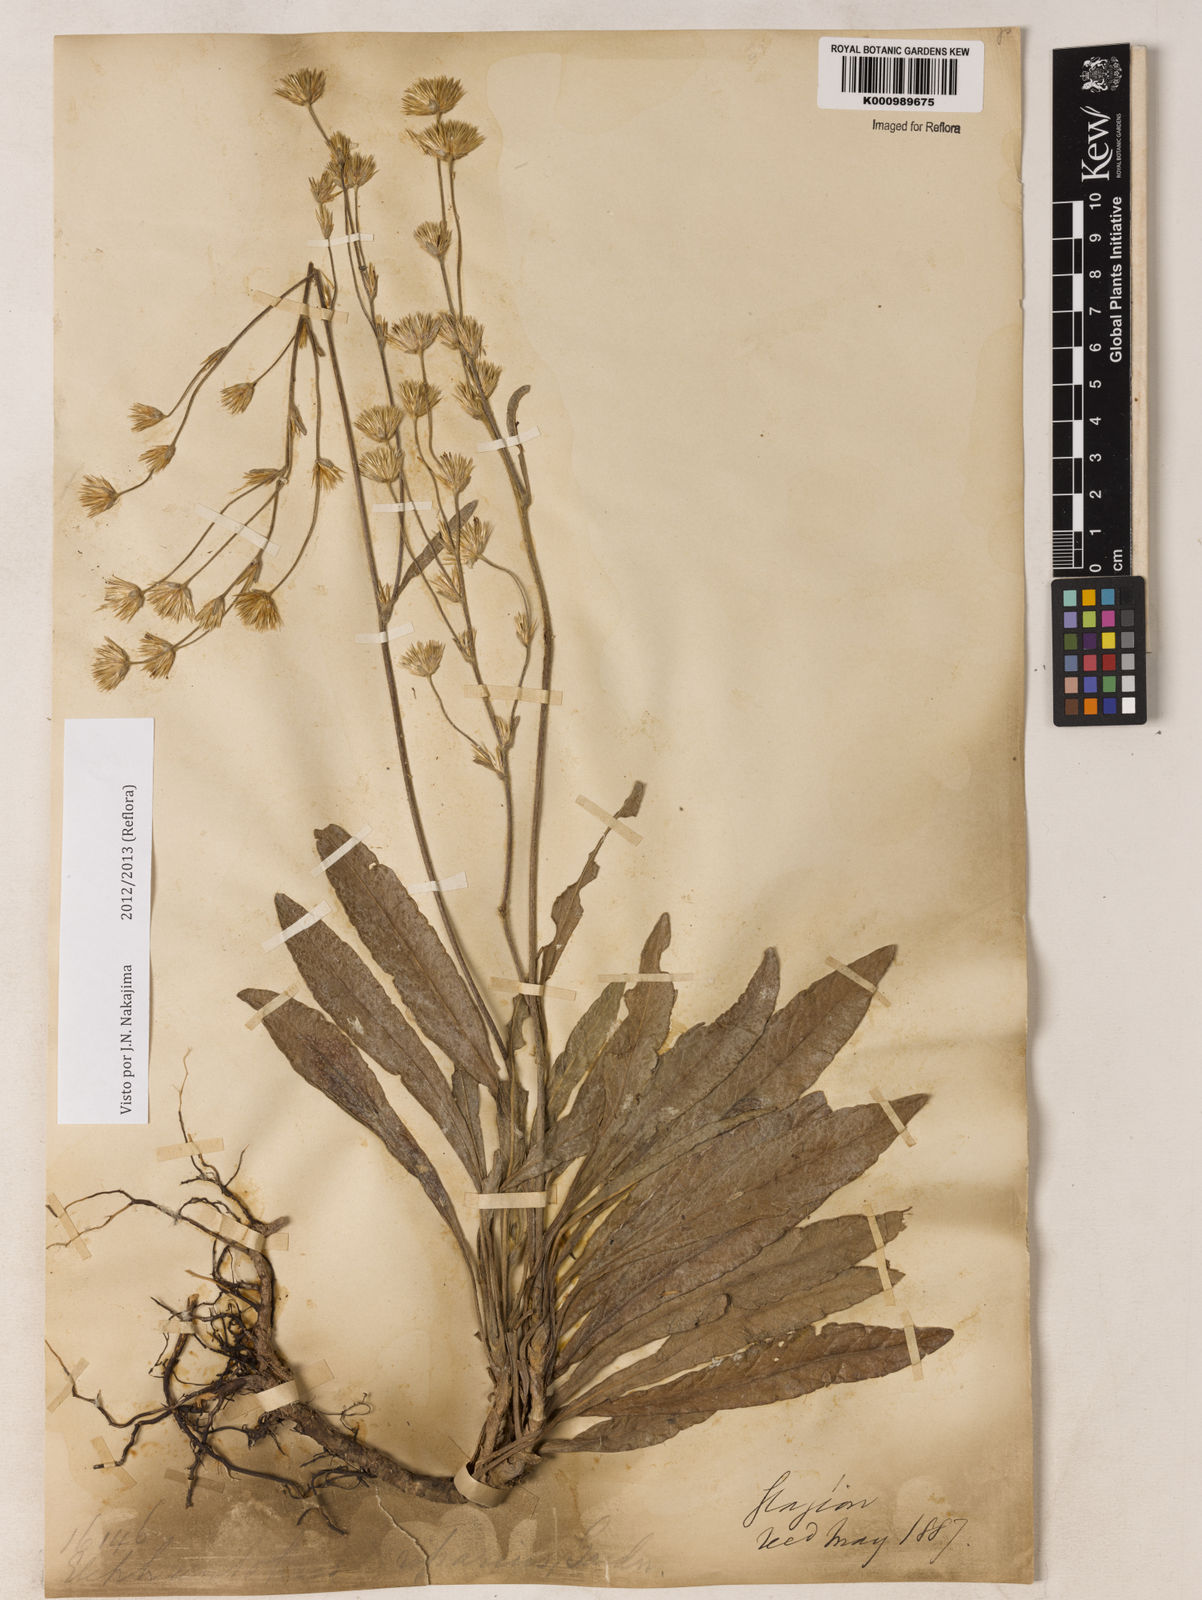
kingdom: Plantae
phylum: Tracheophyta
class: Magnoliopsida
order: Asterales
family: Asteraceae
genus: Elephantopus
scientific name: Elephantopus riparius
